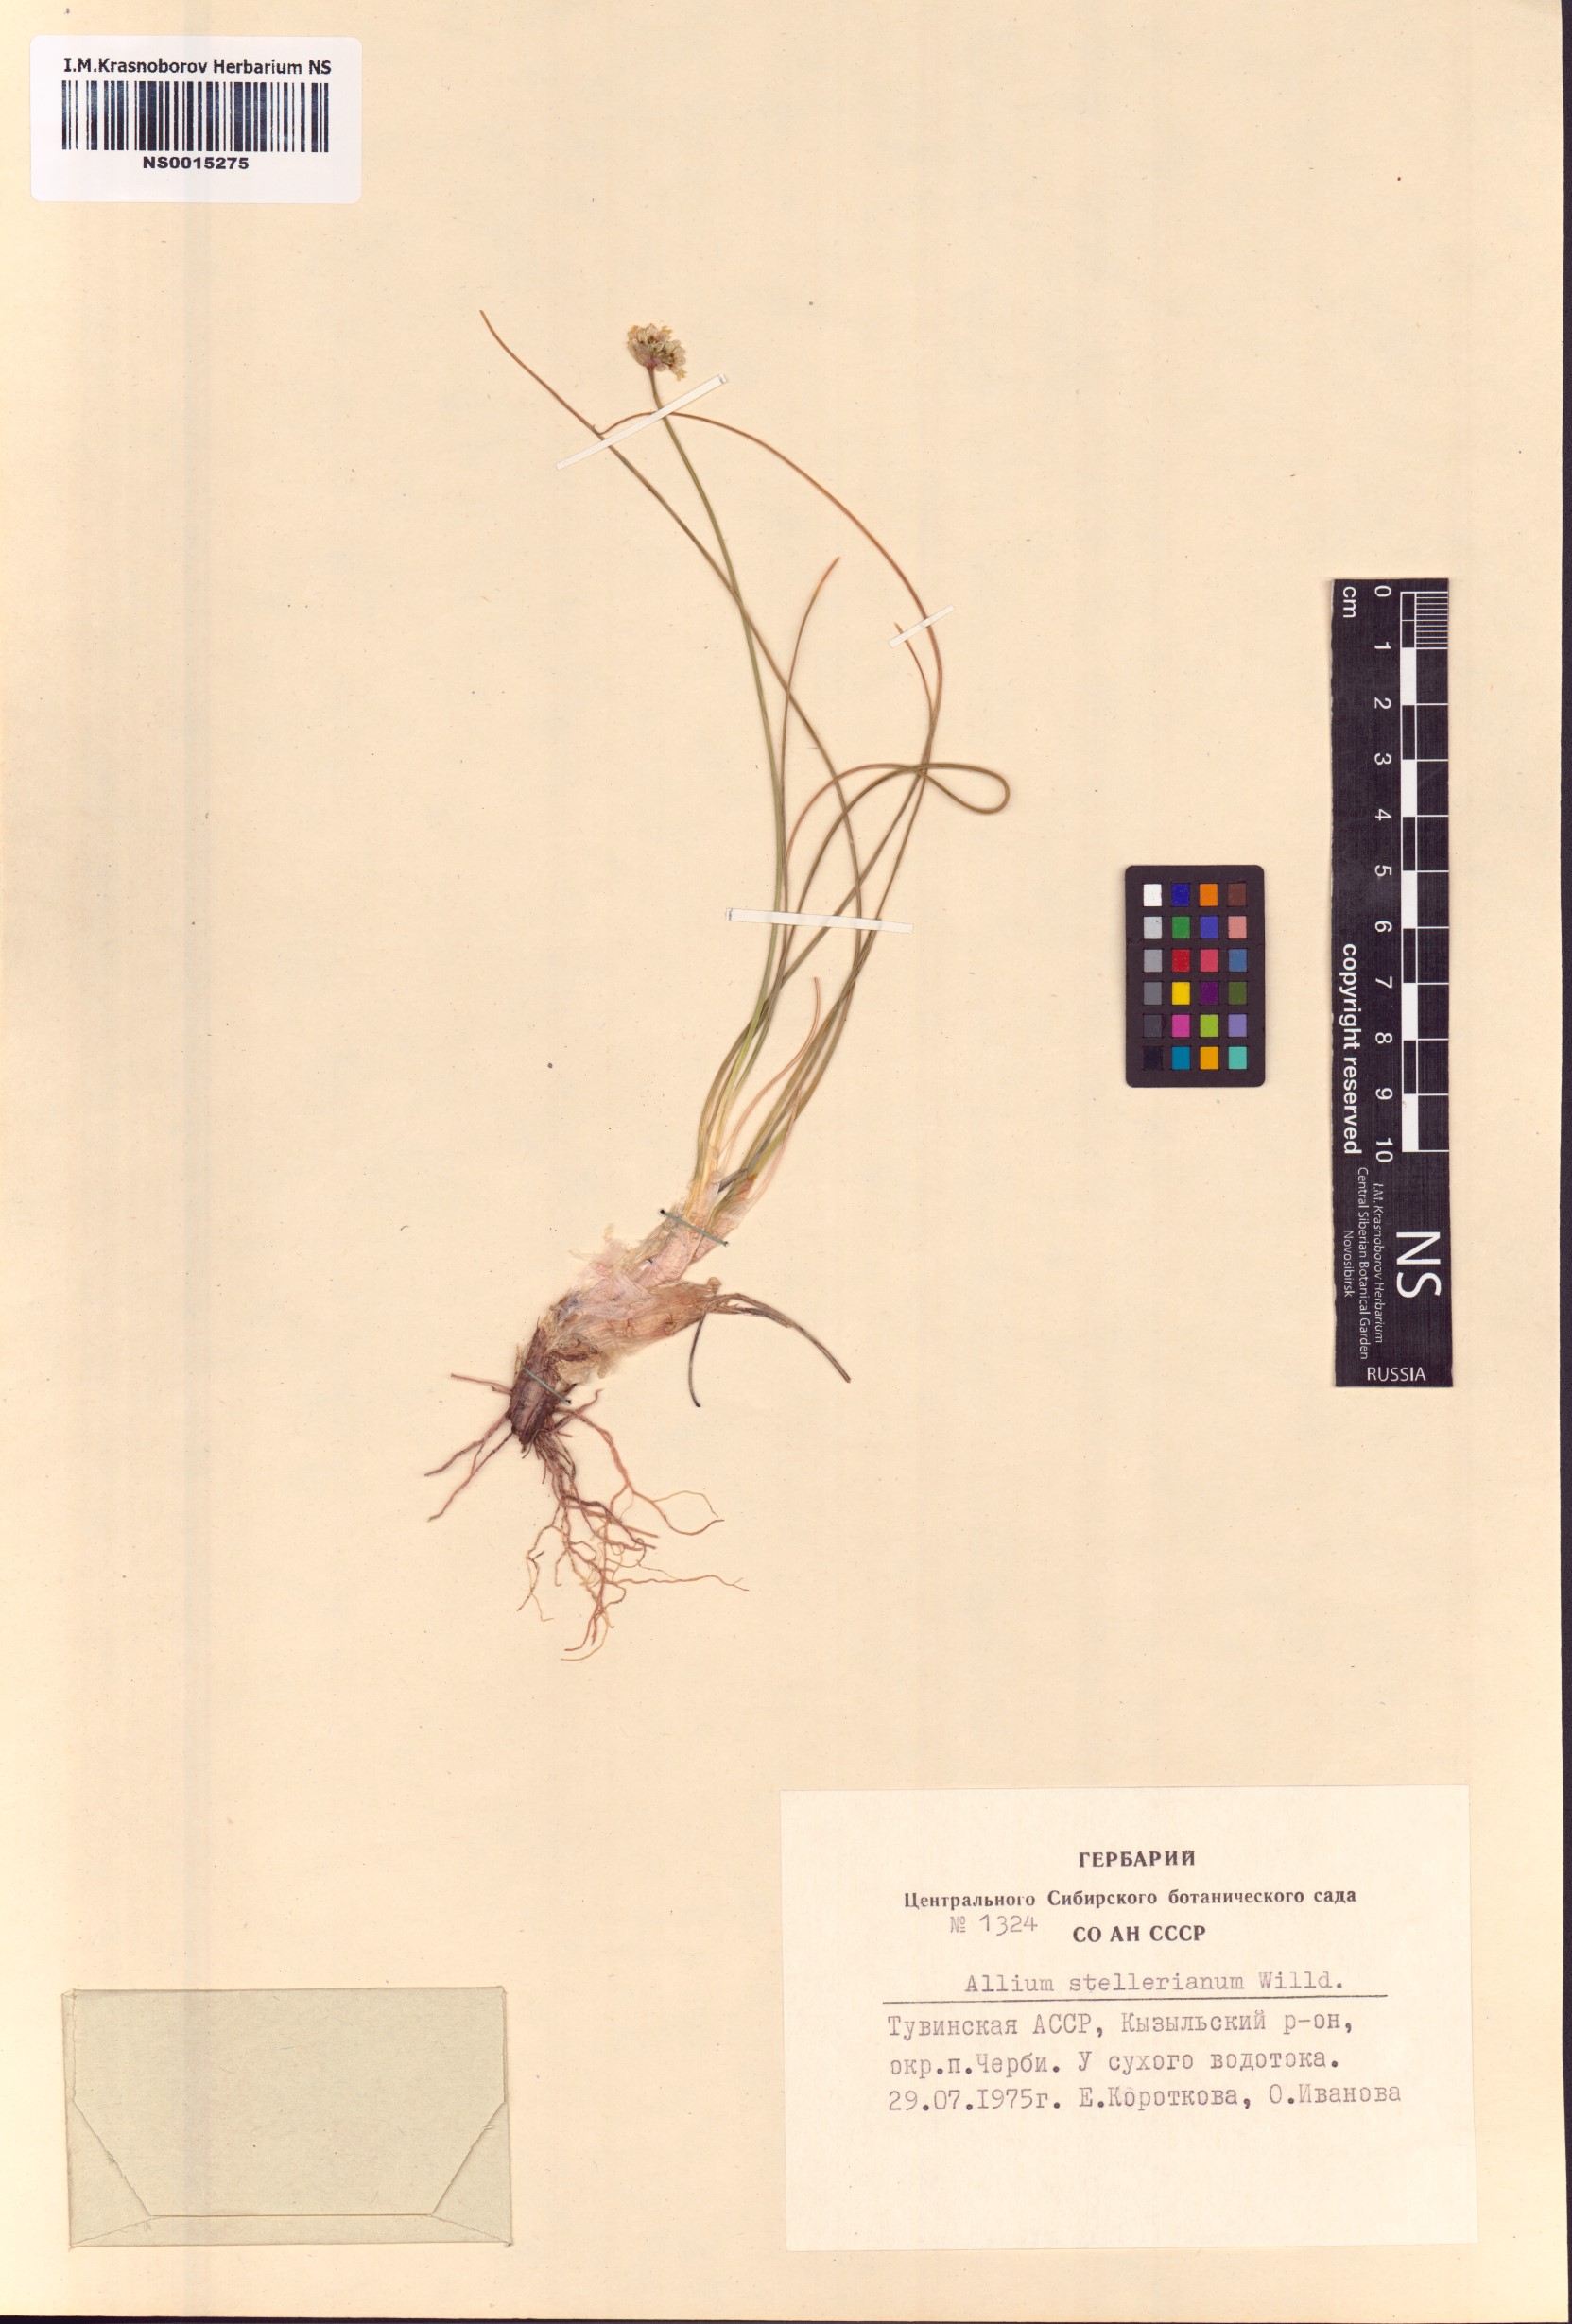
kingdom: Plantae
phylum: Tracheophyta
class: Liliopsida
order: Asparagales
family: Amaryllidaceae
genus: Allium
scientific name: Allium stellerianum
